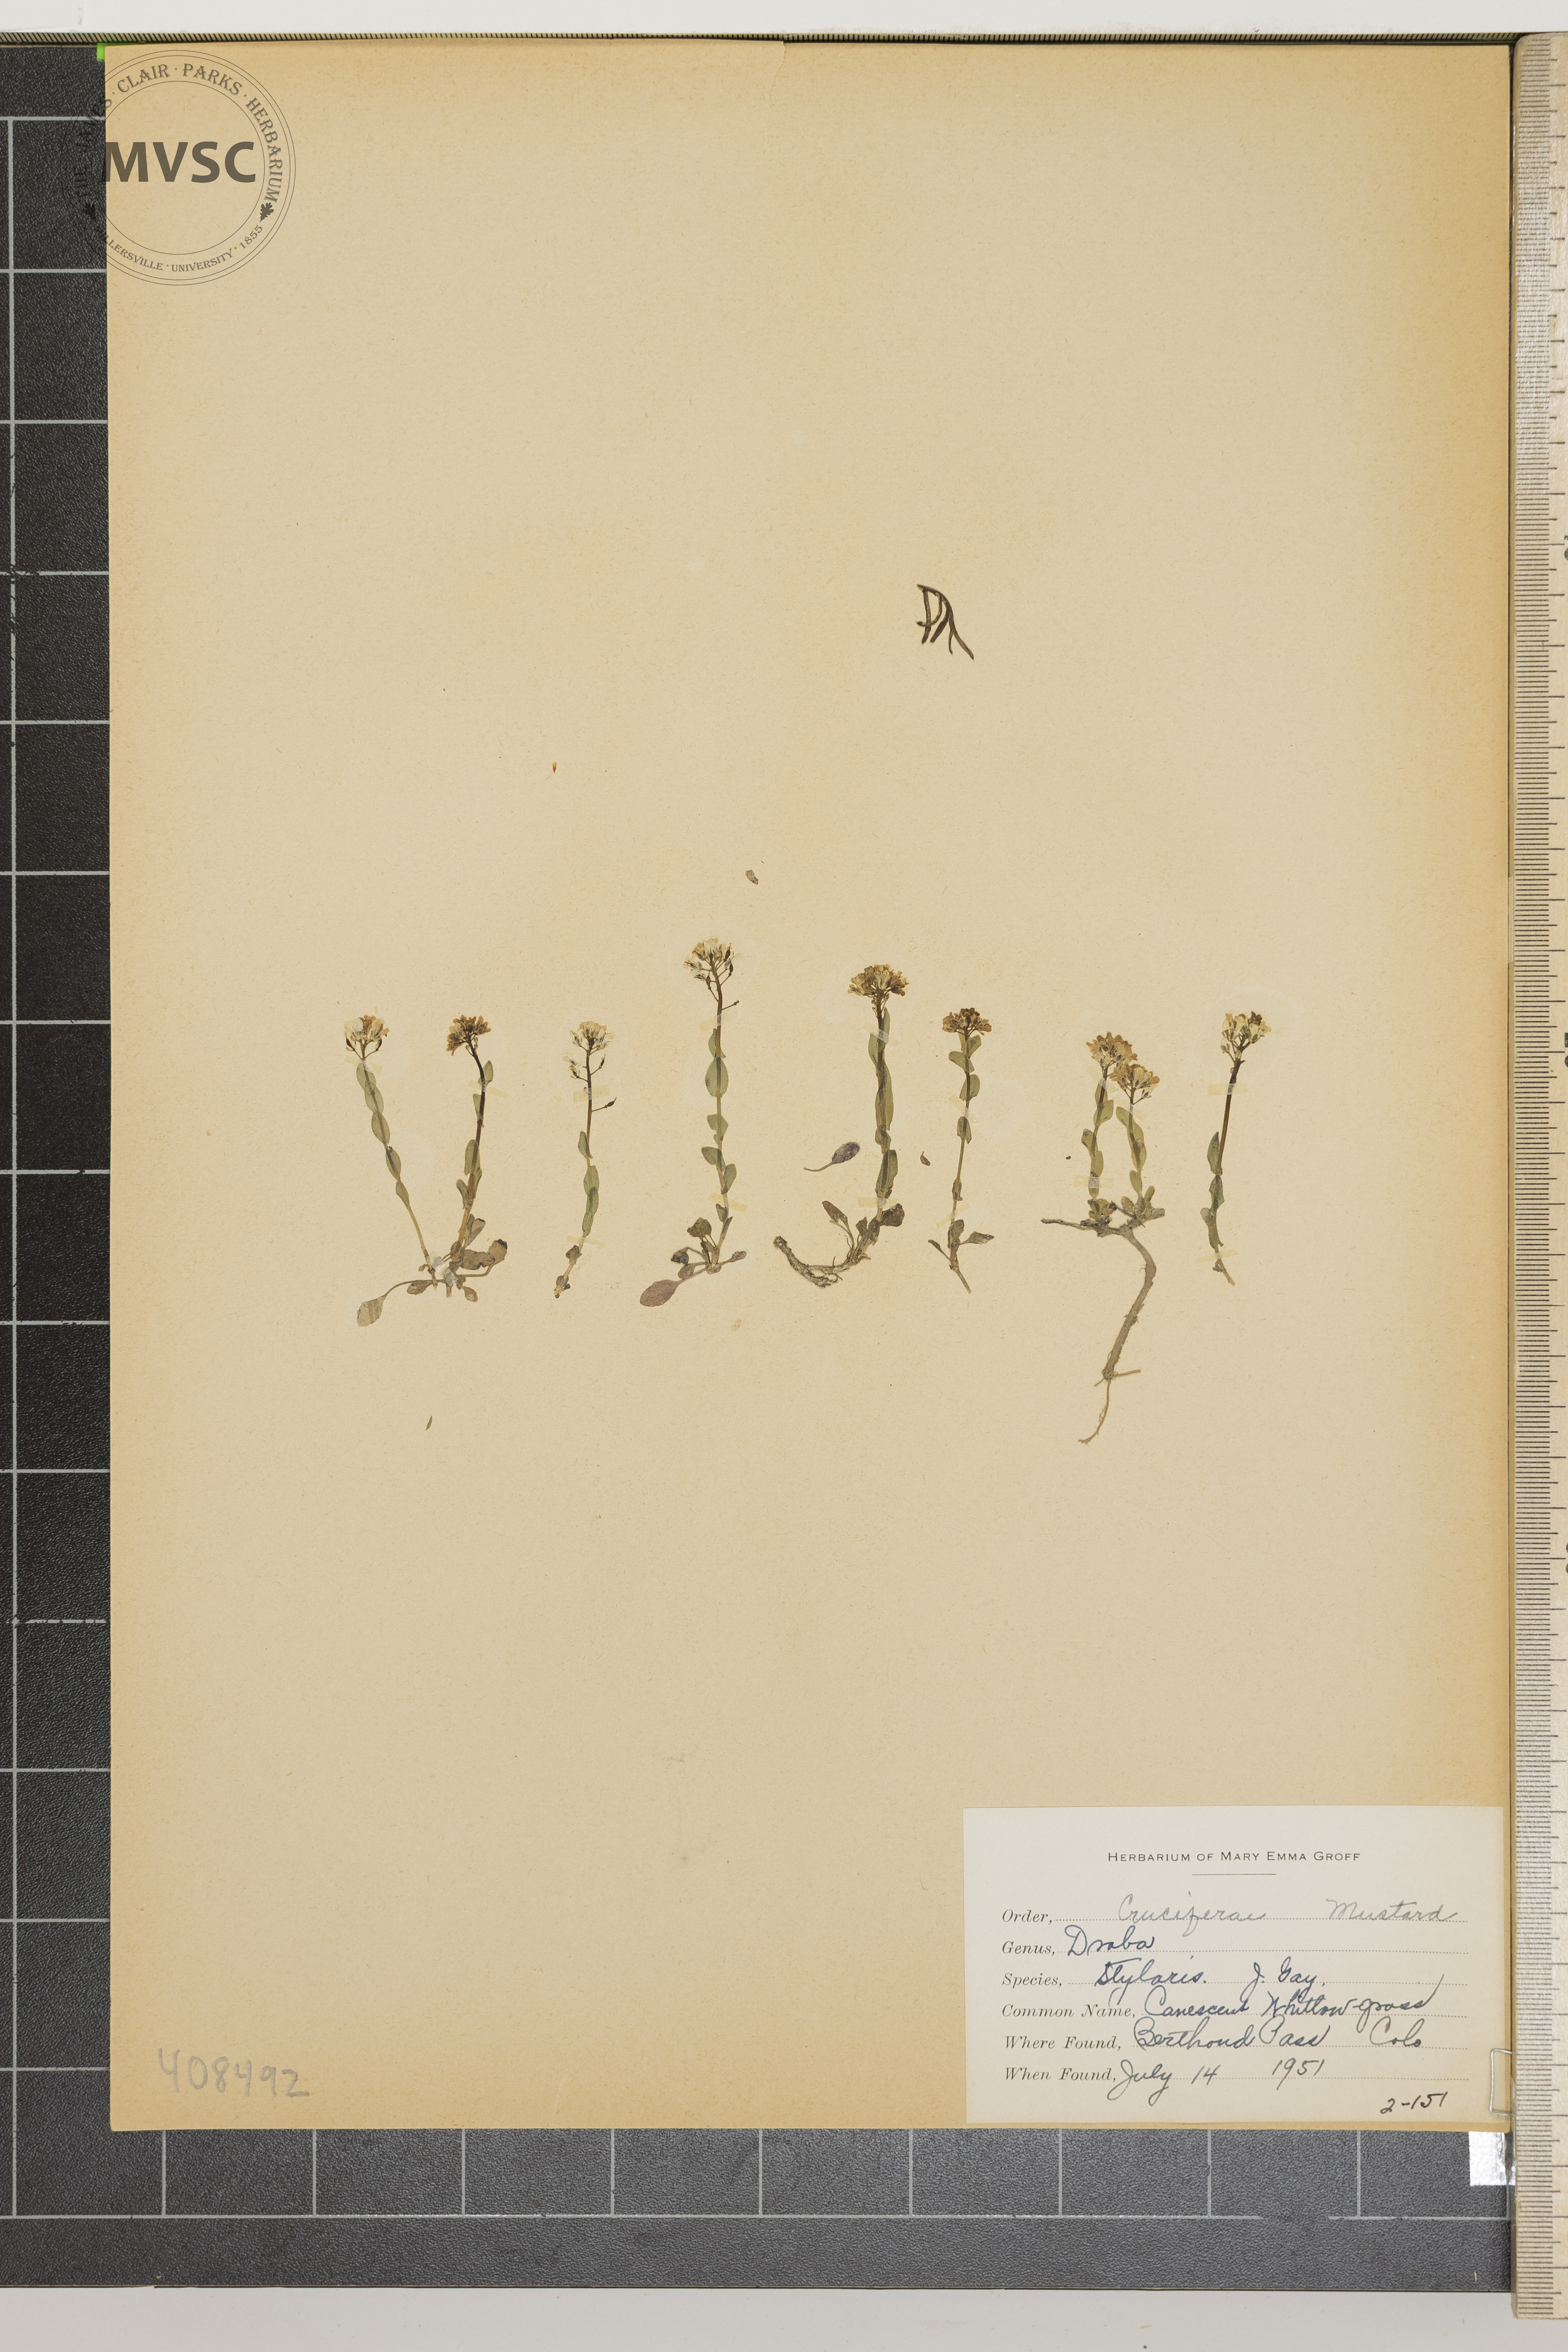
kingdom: Plantae
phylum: Tracheophyta
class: Magnoliopsida
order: Brassicales
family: Brassicaceae
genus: Draba
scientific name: Draba stylaris
